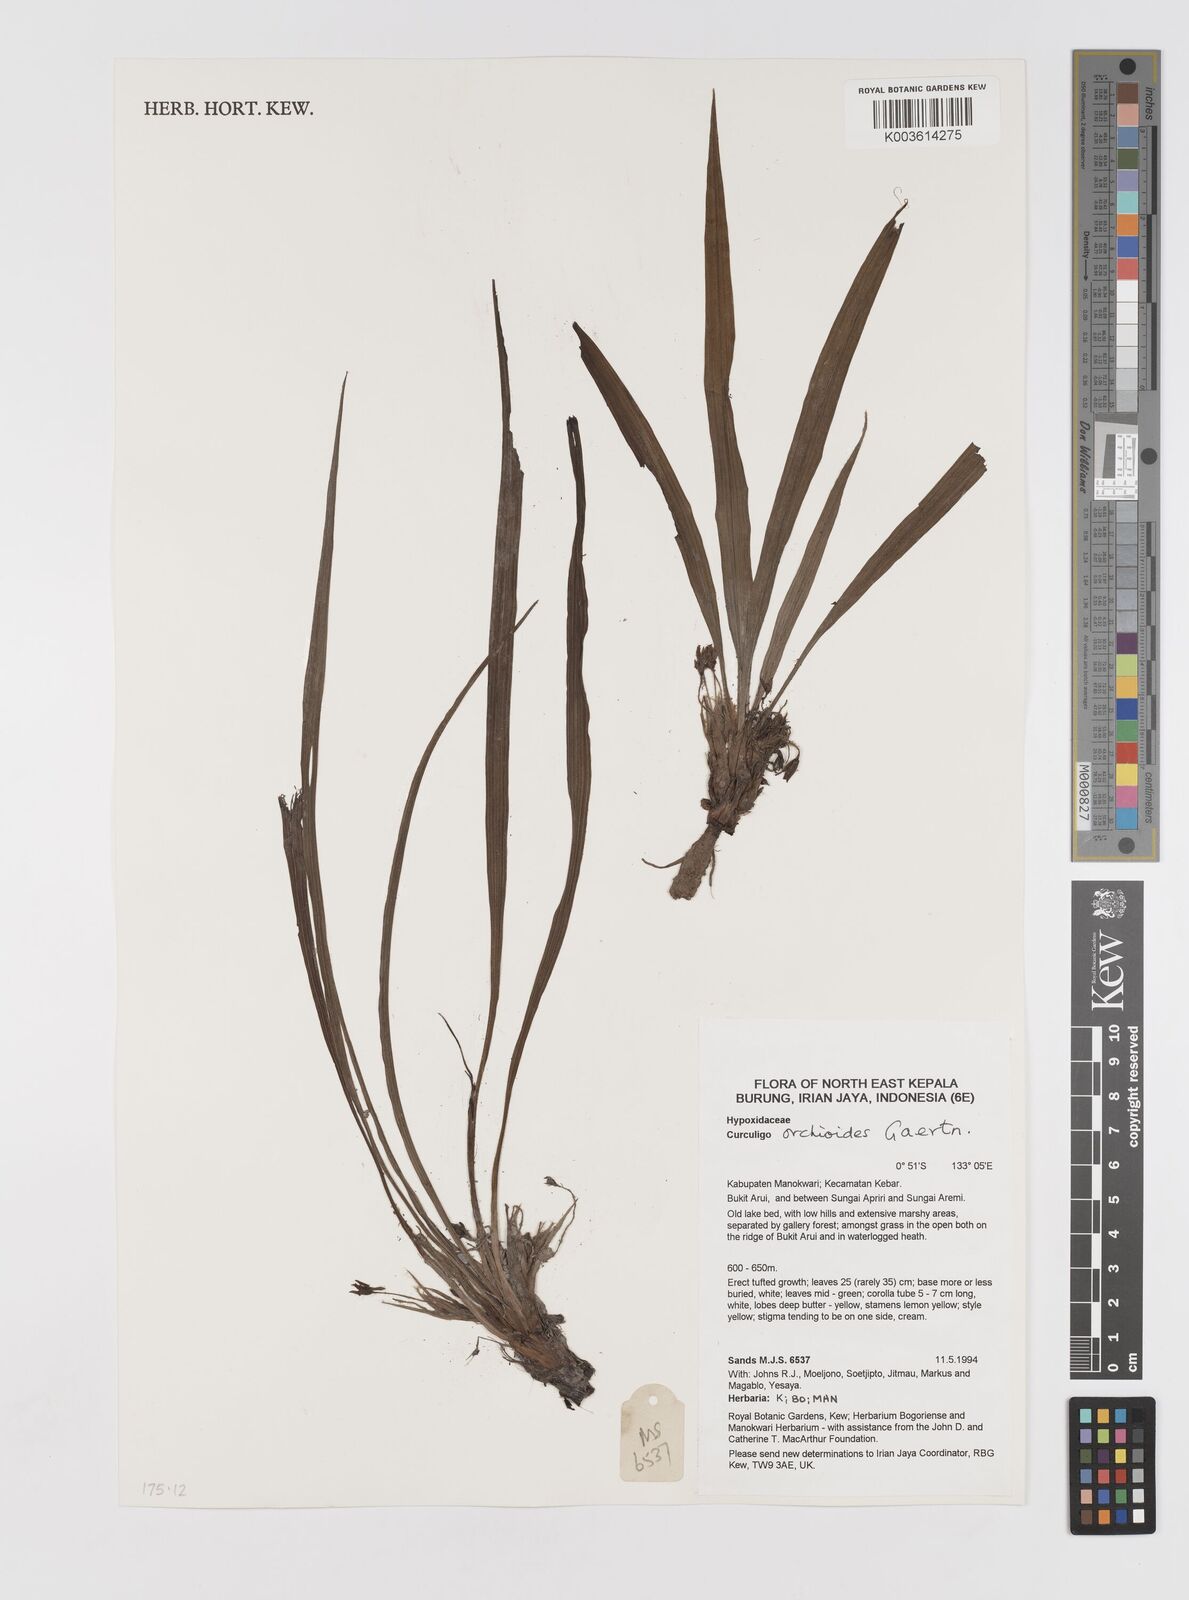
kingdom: Plantae
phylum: Tracheophyta
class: Liliopsida
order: Asparagales
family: Hypoxidaceae
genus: Curculigo
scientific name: Curculigo orchioides
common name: Golden eye-grass
